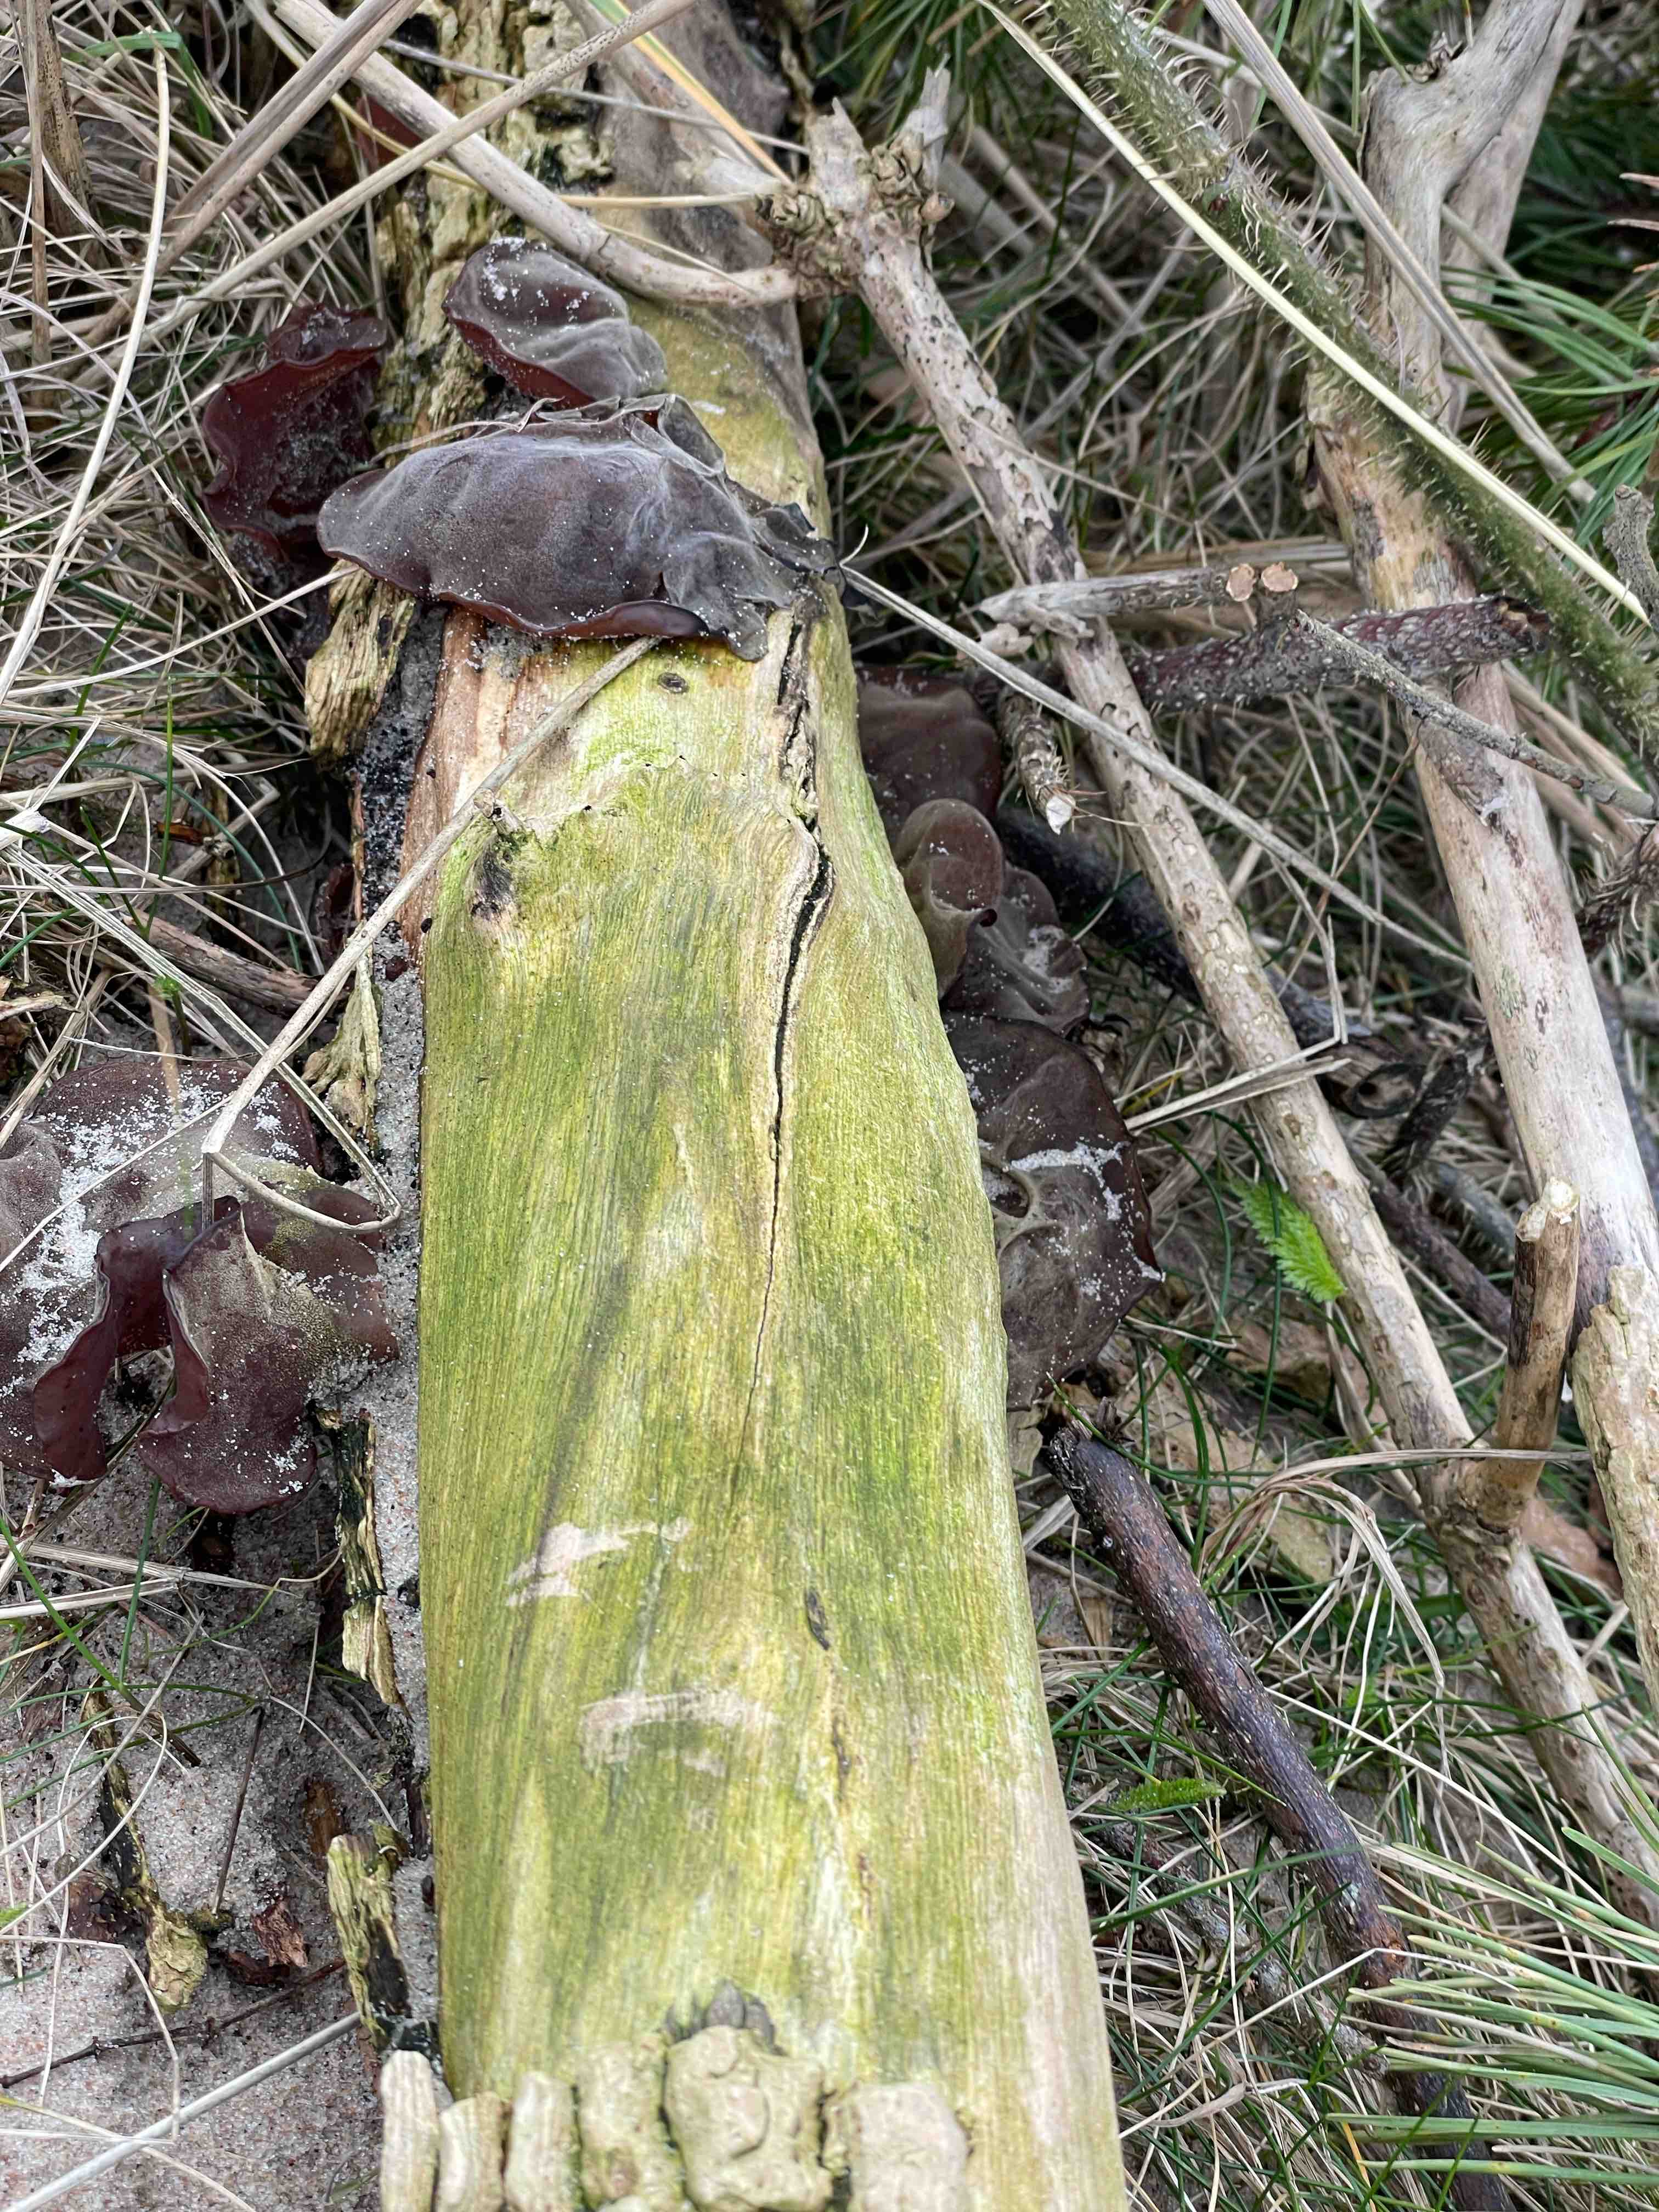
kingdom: Fungi
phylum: Basidiomycota
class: Agaricomycetes
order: Auriculariales
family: Auriculariaceae
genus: Auricularia
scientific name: Auricularia auricula-judae
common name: almindelig judasøre
